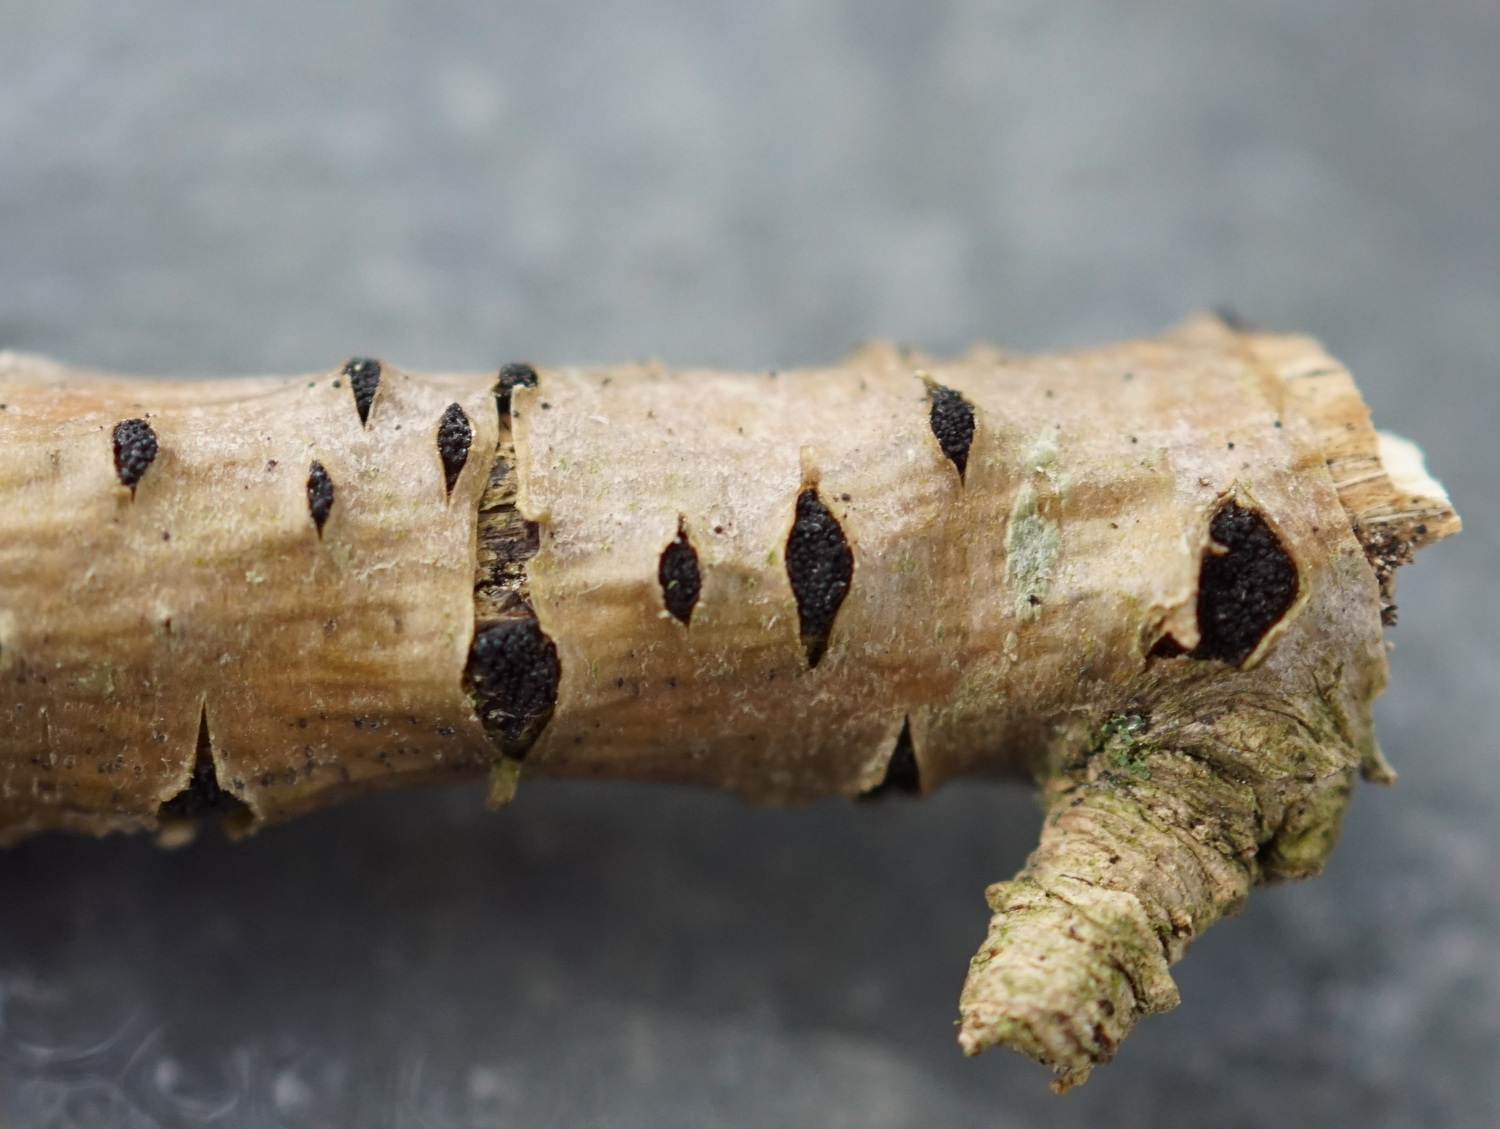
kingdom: Fungi
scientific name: Fungi
